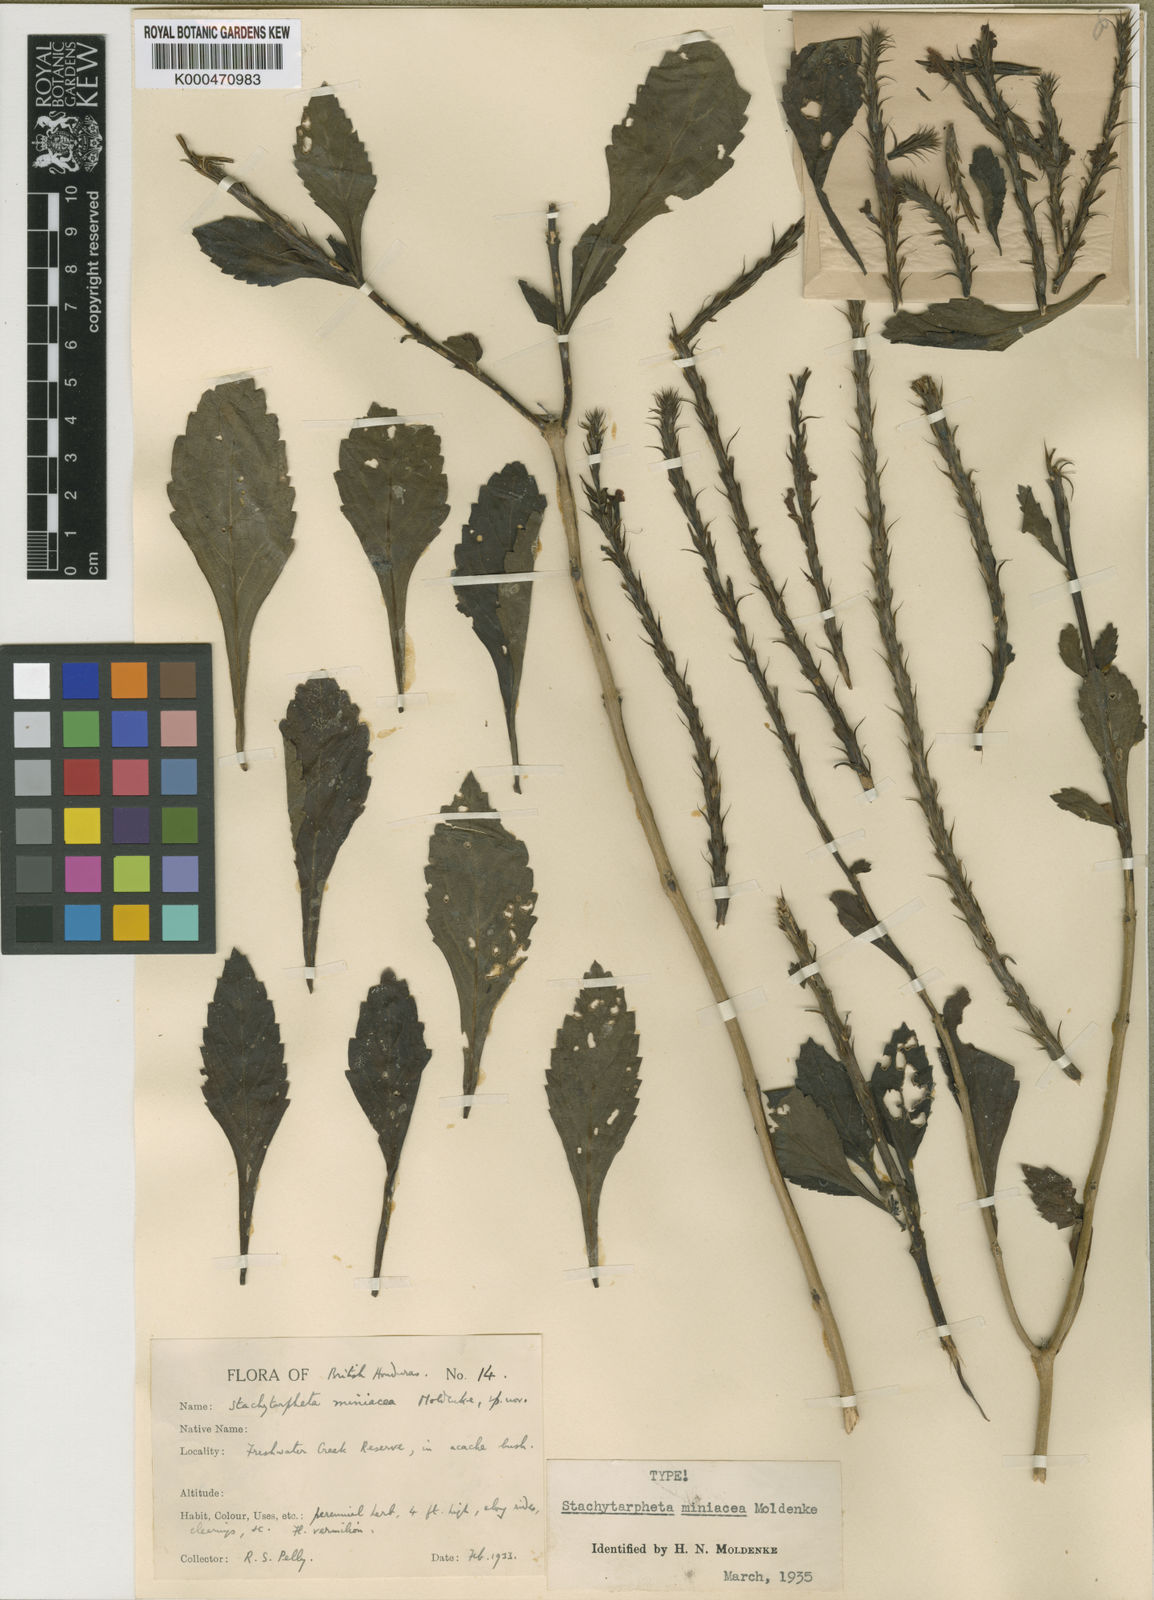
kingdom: Plantae
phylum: Tracheophyta
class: Magnoliopsida
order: Lamiales
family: Verbenaceae
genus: Stachytarpheta
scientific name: Stachytarpheta miniacea
